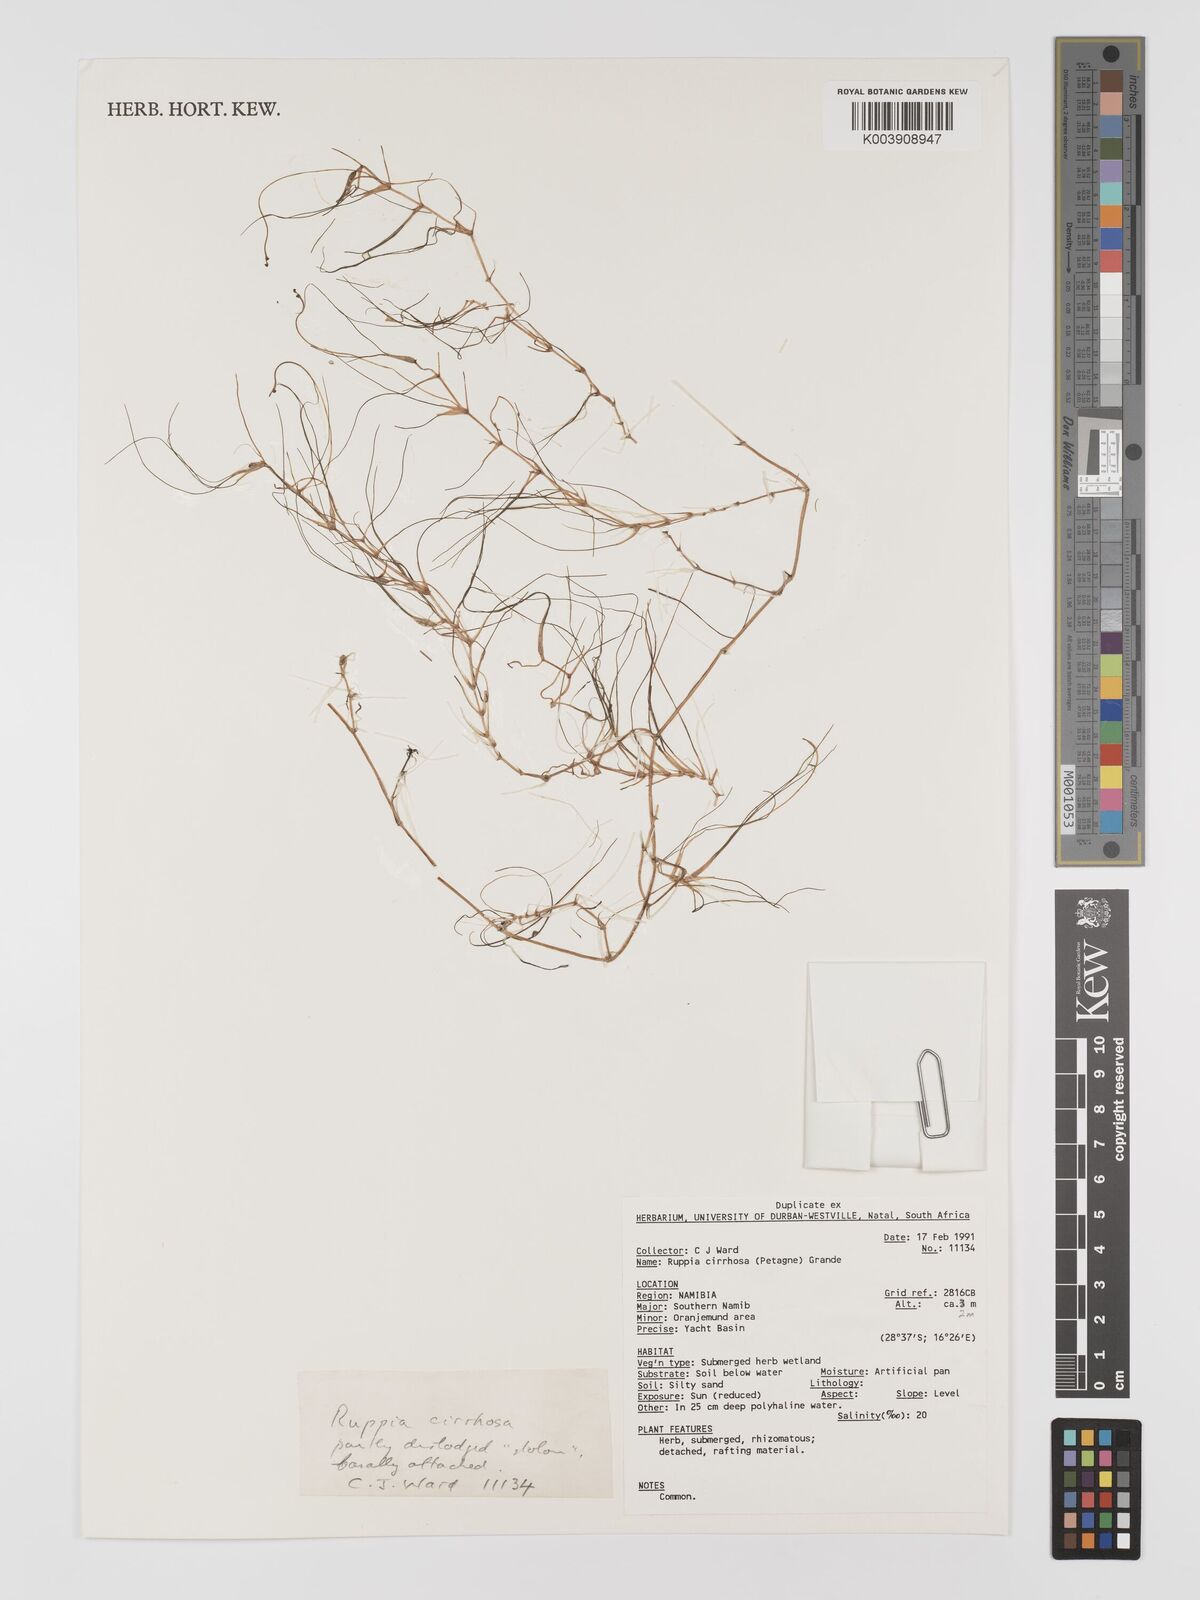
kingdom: Plantae
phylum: Tracheophyta
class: Liliopsida
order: Alismatales
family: Ruppiaceae
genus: Ruppia
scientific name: Ruppia cirrhosa
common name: Spiral tasselweed
